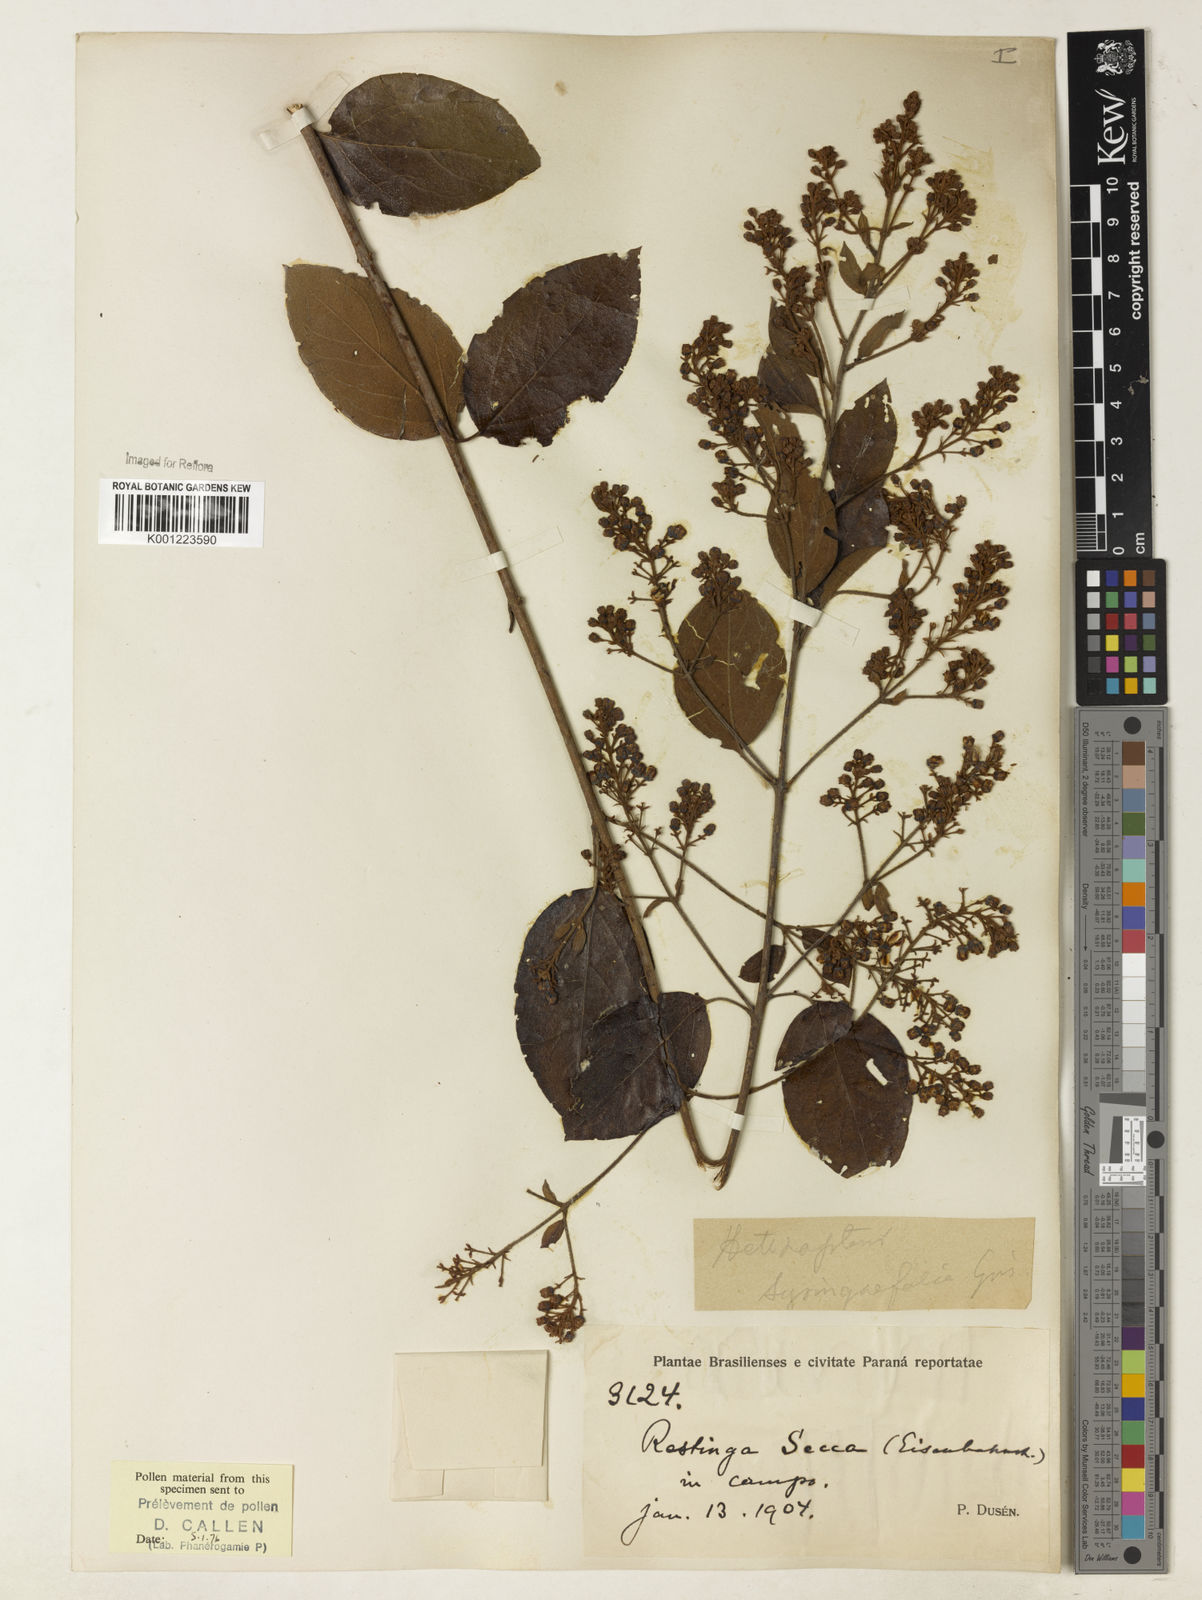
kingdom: Plantae
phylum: Tracheophyta
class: Magnoliopsida
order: Malpighiales
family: Malpighiaceae
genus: Heteropterys
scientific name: Heteropterys syringifolia
